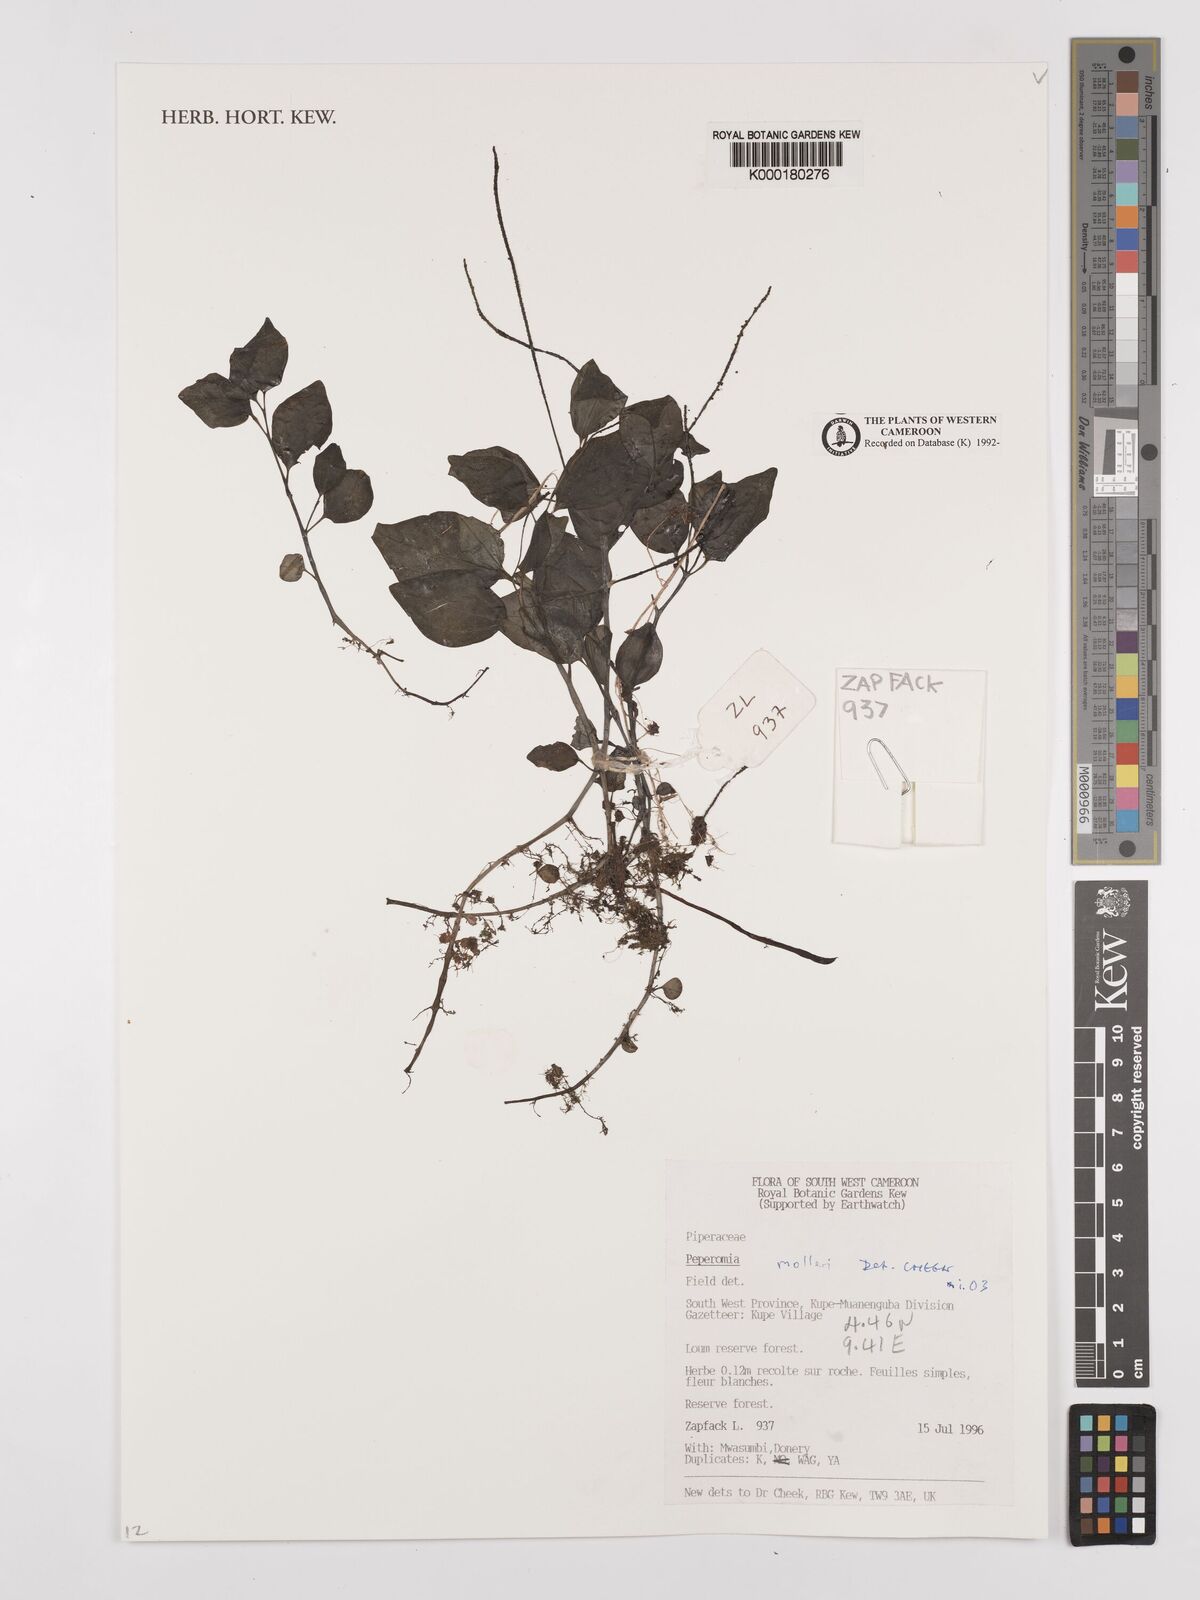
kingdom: Plantae
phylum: Tracheophyta
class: Magnoliopsida
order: Piperales
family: Piperaceae
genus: Peperomia
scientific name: Peperomia molleri
